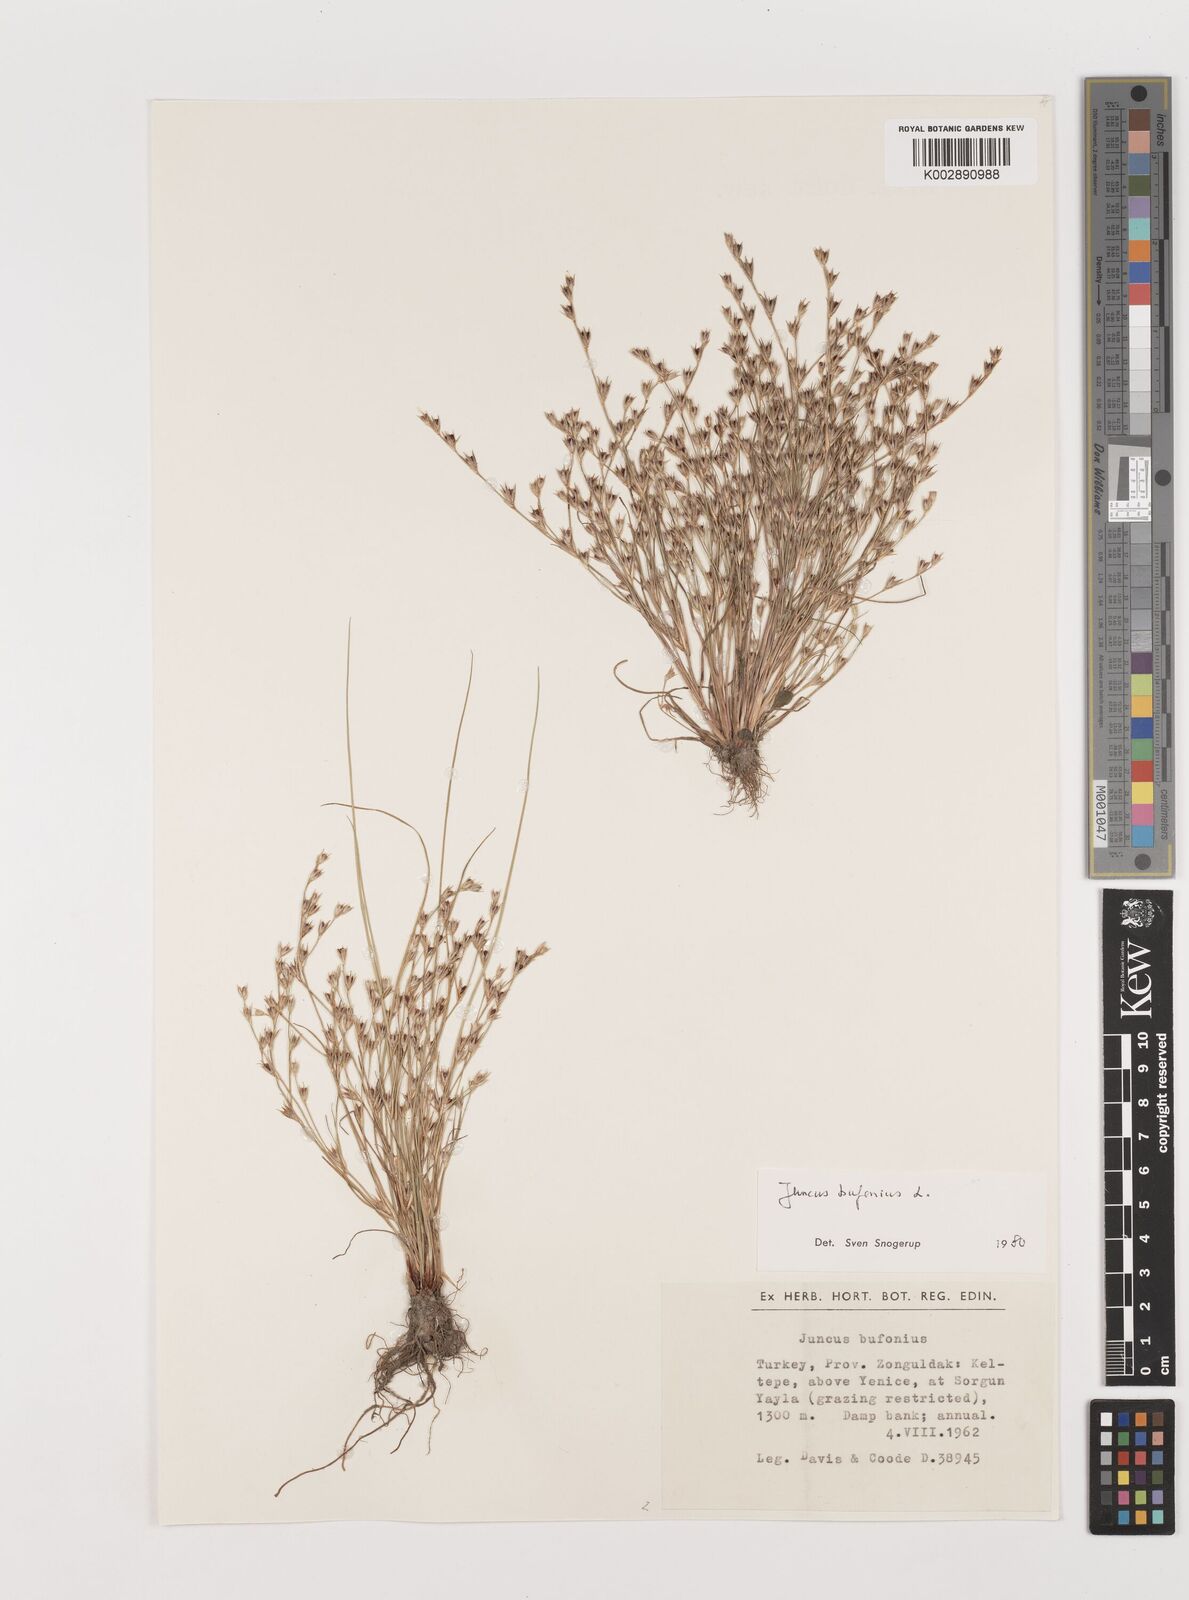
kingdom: Plantae
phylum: Tracheophyta
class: Liliopsida
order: Poales
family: Juncaceae
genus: Juncus
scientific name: Juncus bufonius
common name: Toad rush
